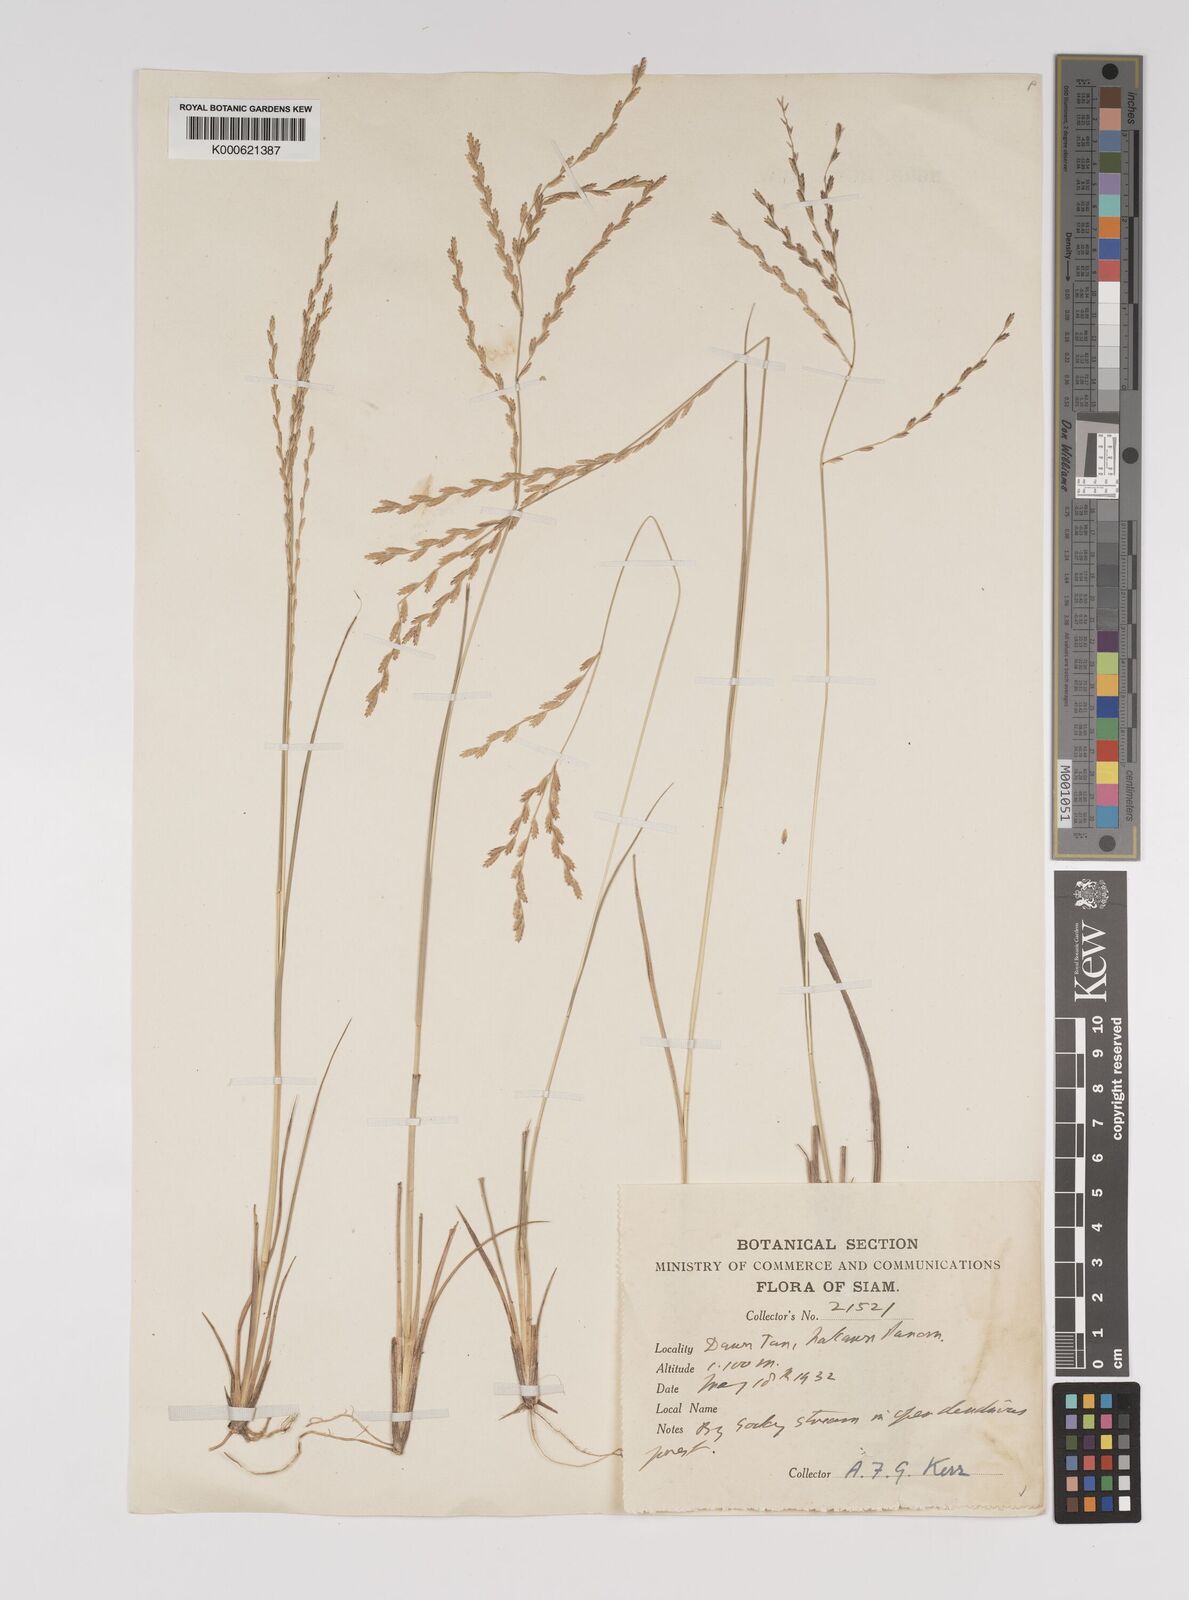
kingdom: Plantae
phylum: Tracheophyta
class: Liliopsida
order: Poales
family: Poaceae
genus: Leptochloa
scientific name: Leptochloa malayana
